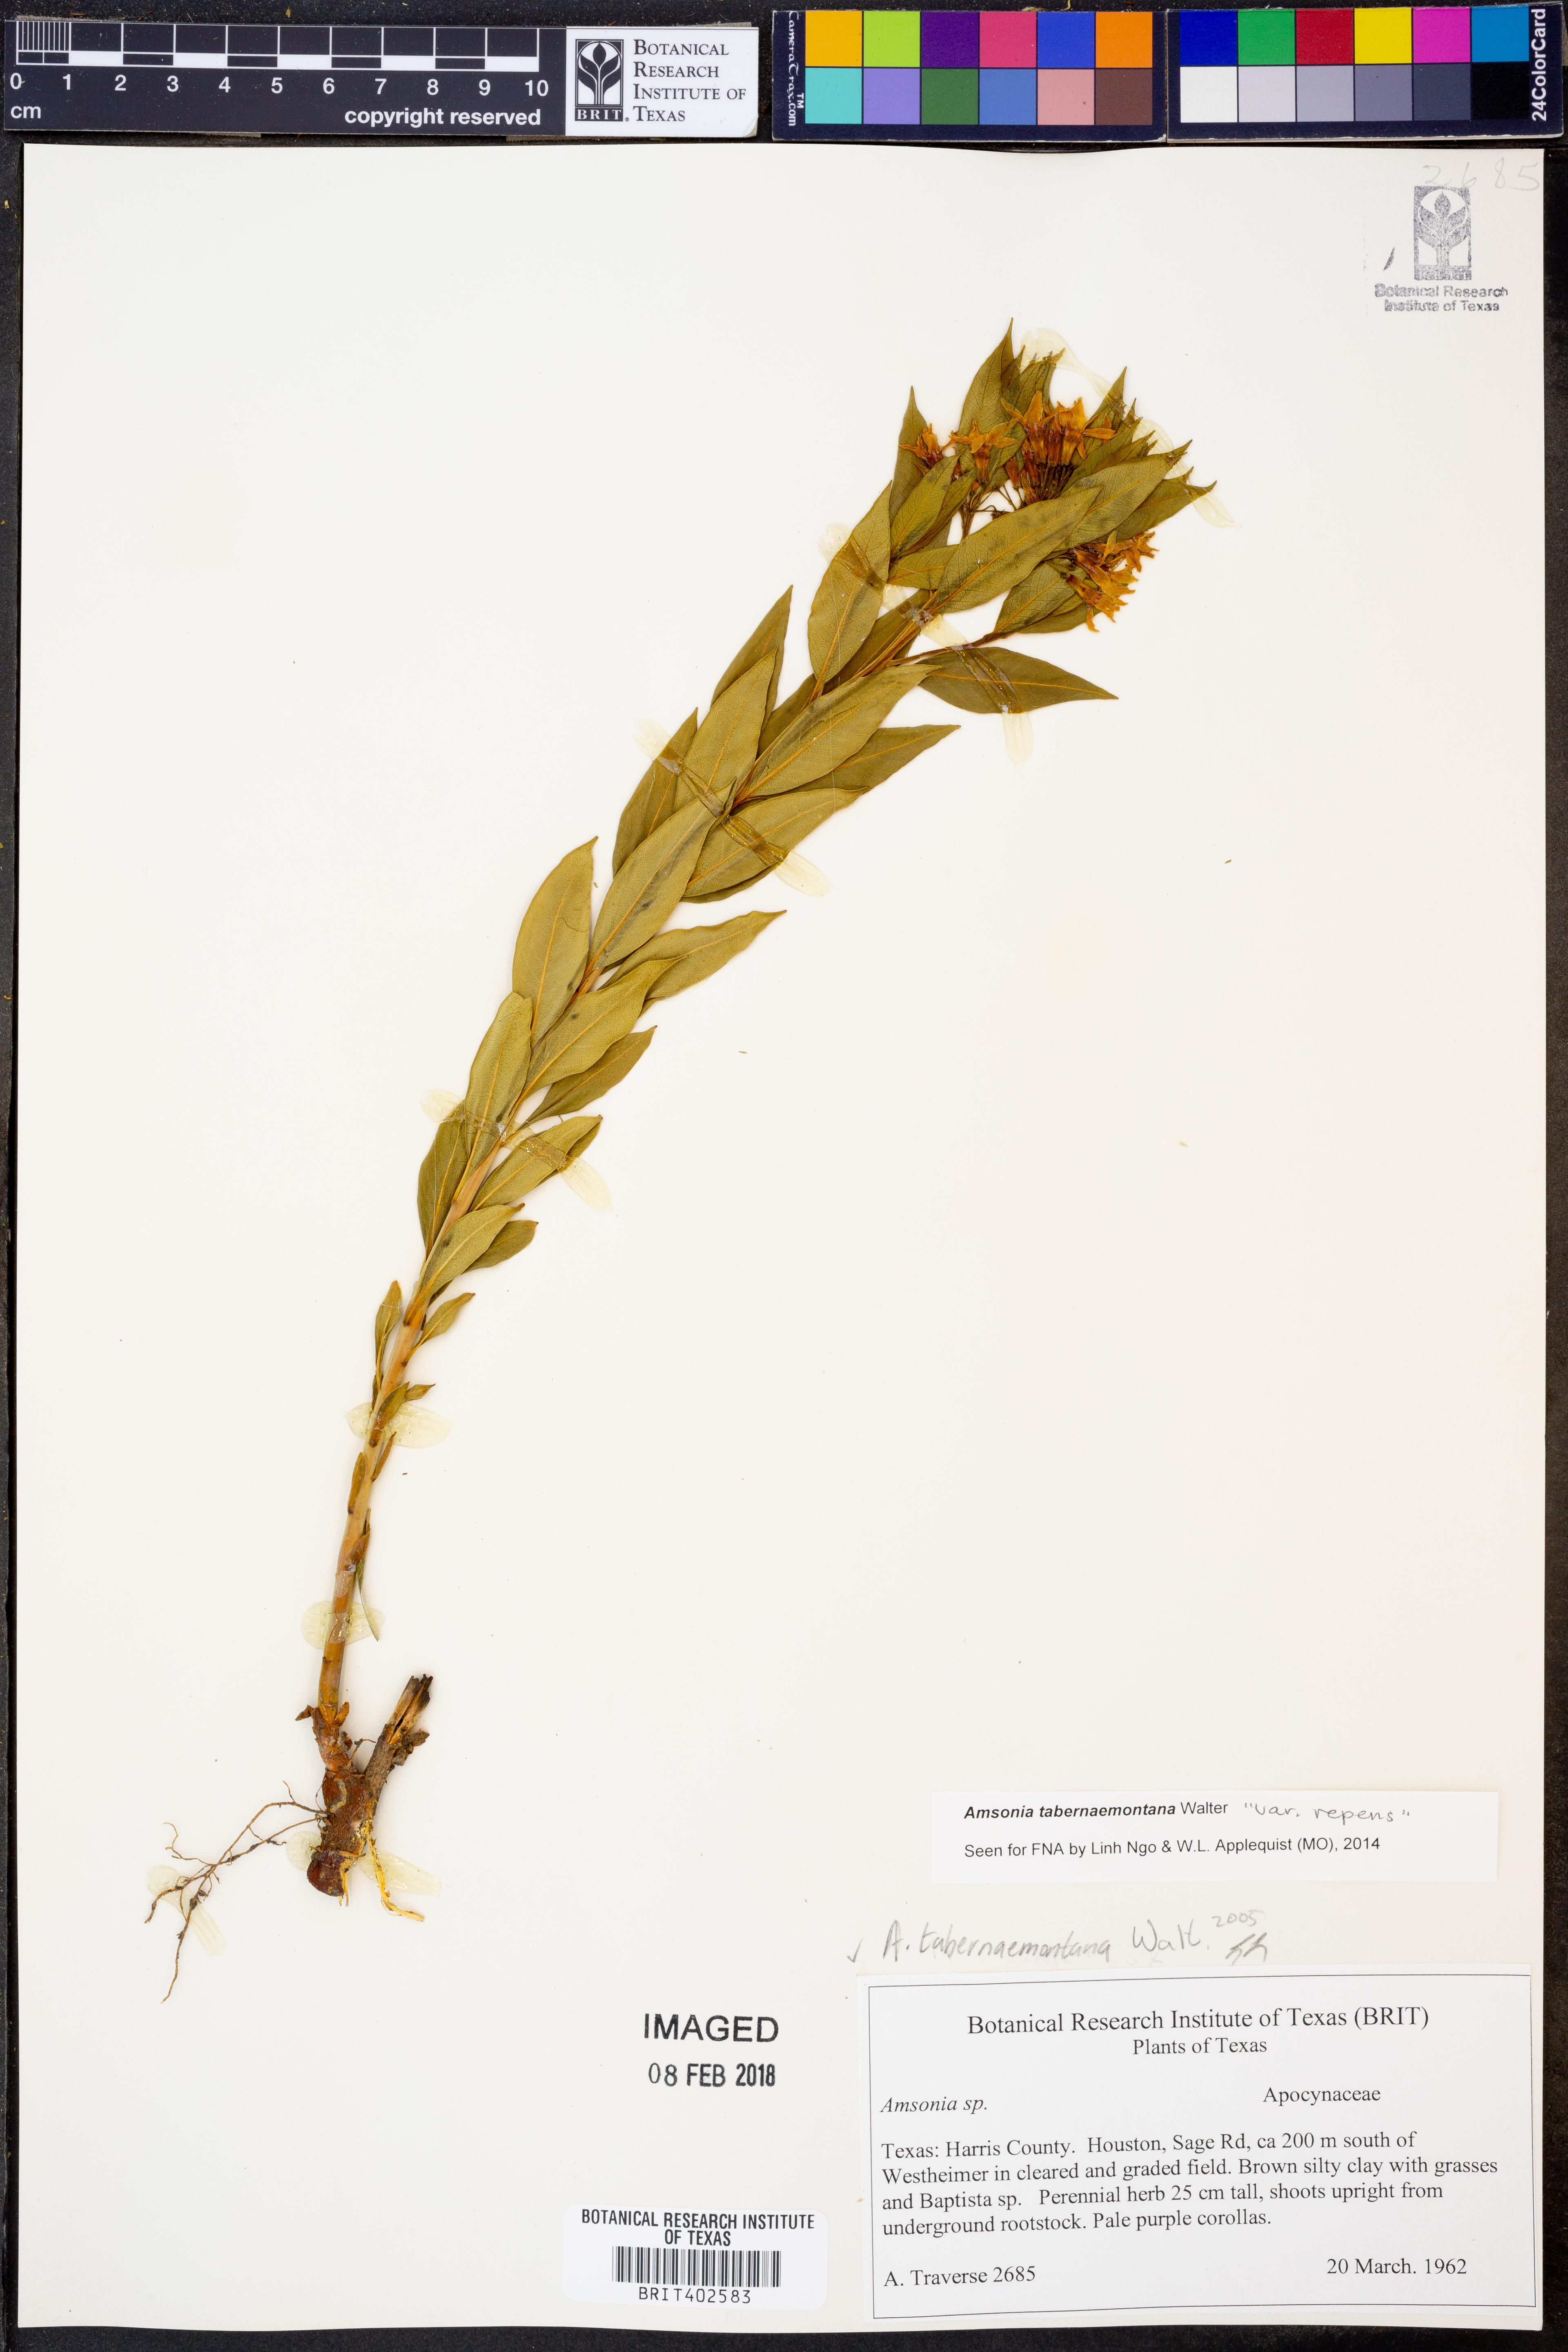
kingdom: Plantae
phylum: Tracheophyta
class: Magnoliopsida
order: Gentianales
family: Apocynaceae
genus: Amsonia
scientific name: Amsonia tabernaemontana
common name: Texas-star
